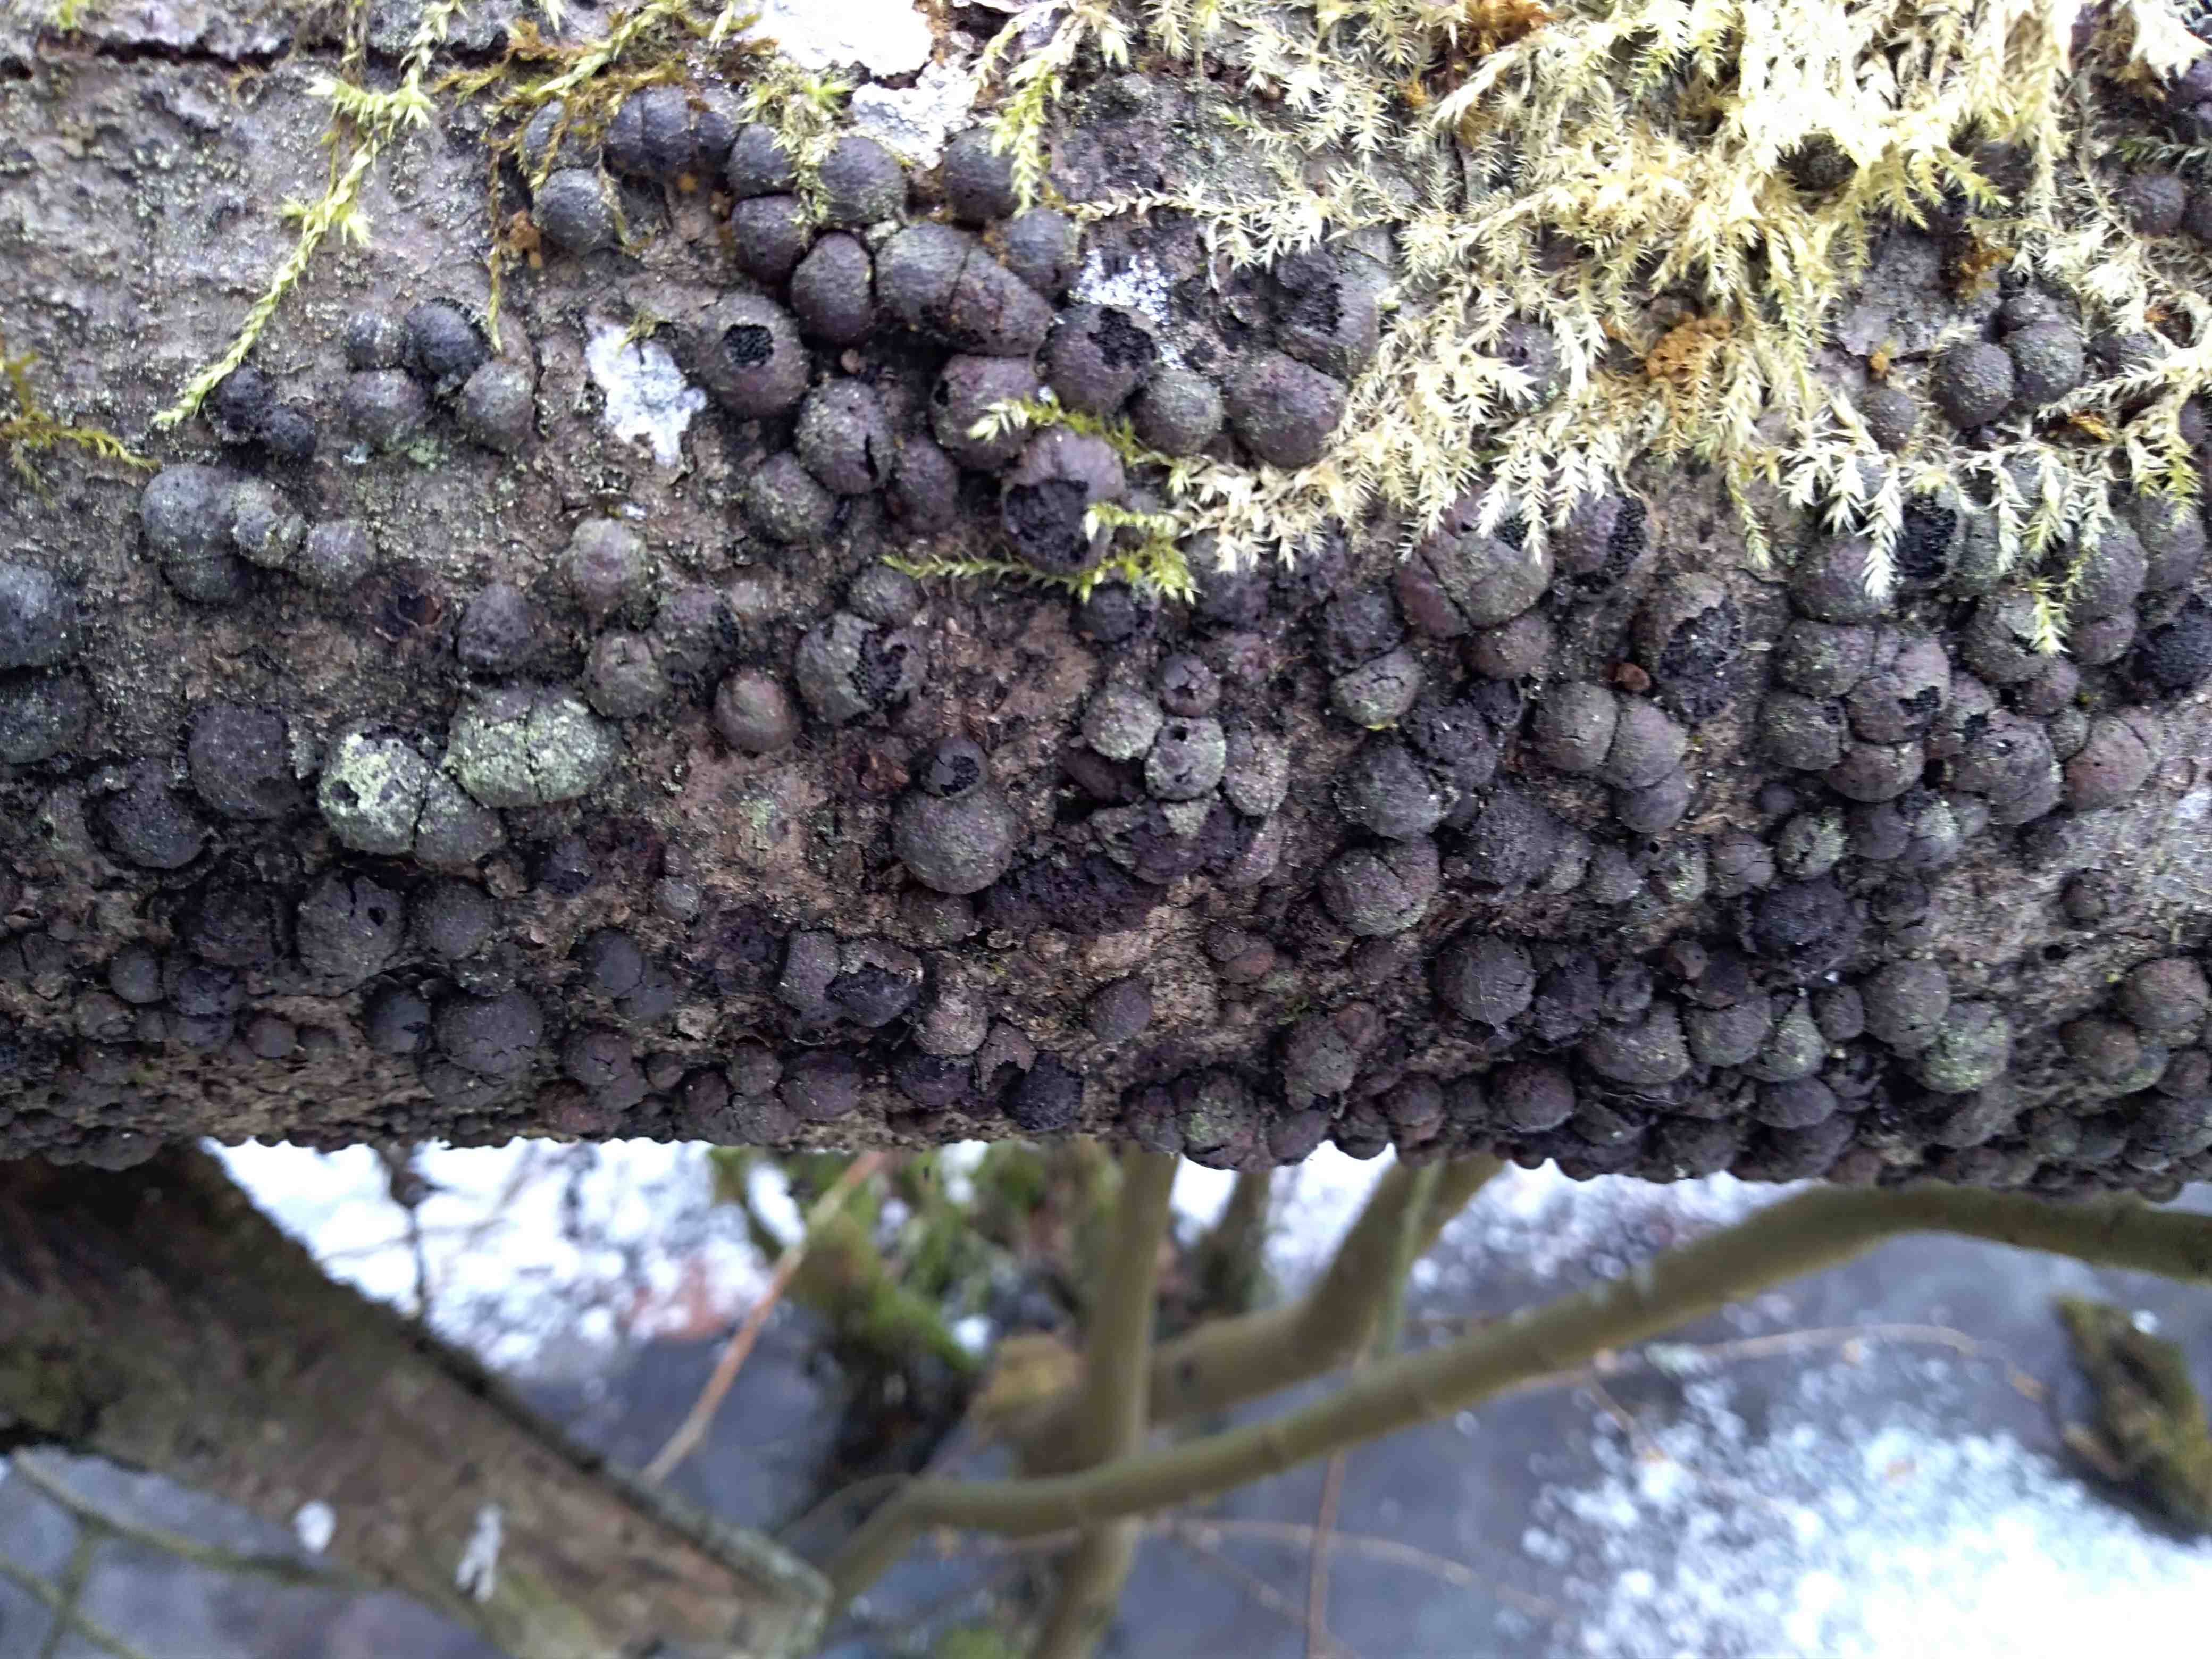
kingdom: Fungi
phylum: Ascomycota
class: Sordariomycetes
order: Xylariales
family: Hypoxylaceae
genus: Hypoxylon
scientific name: Hypoxylon fragiforme
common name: kuljordbær
